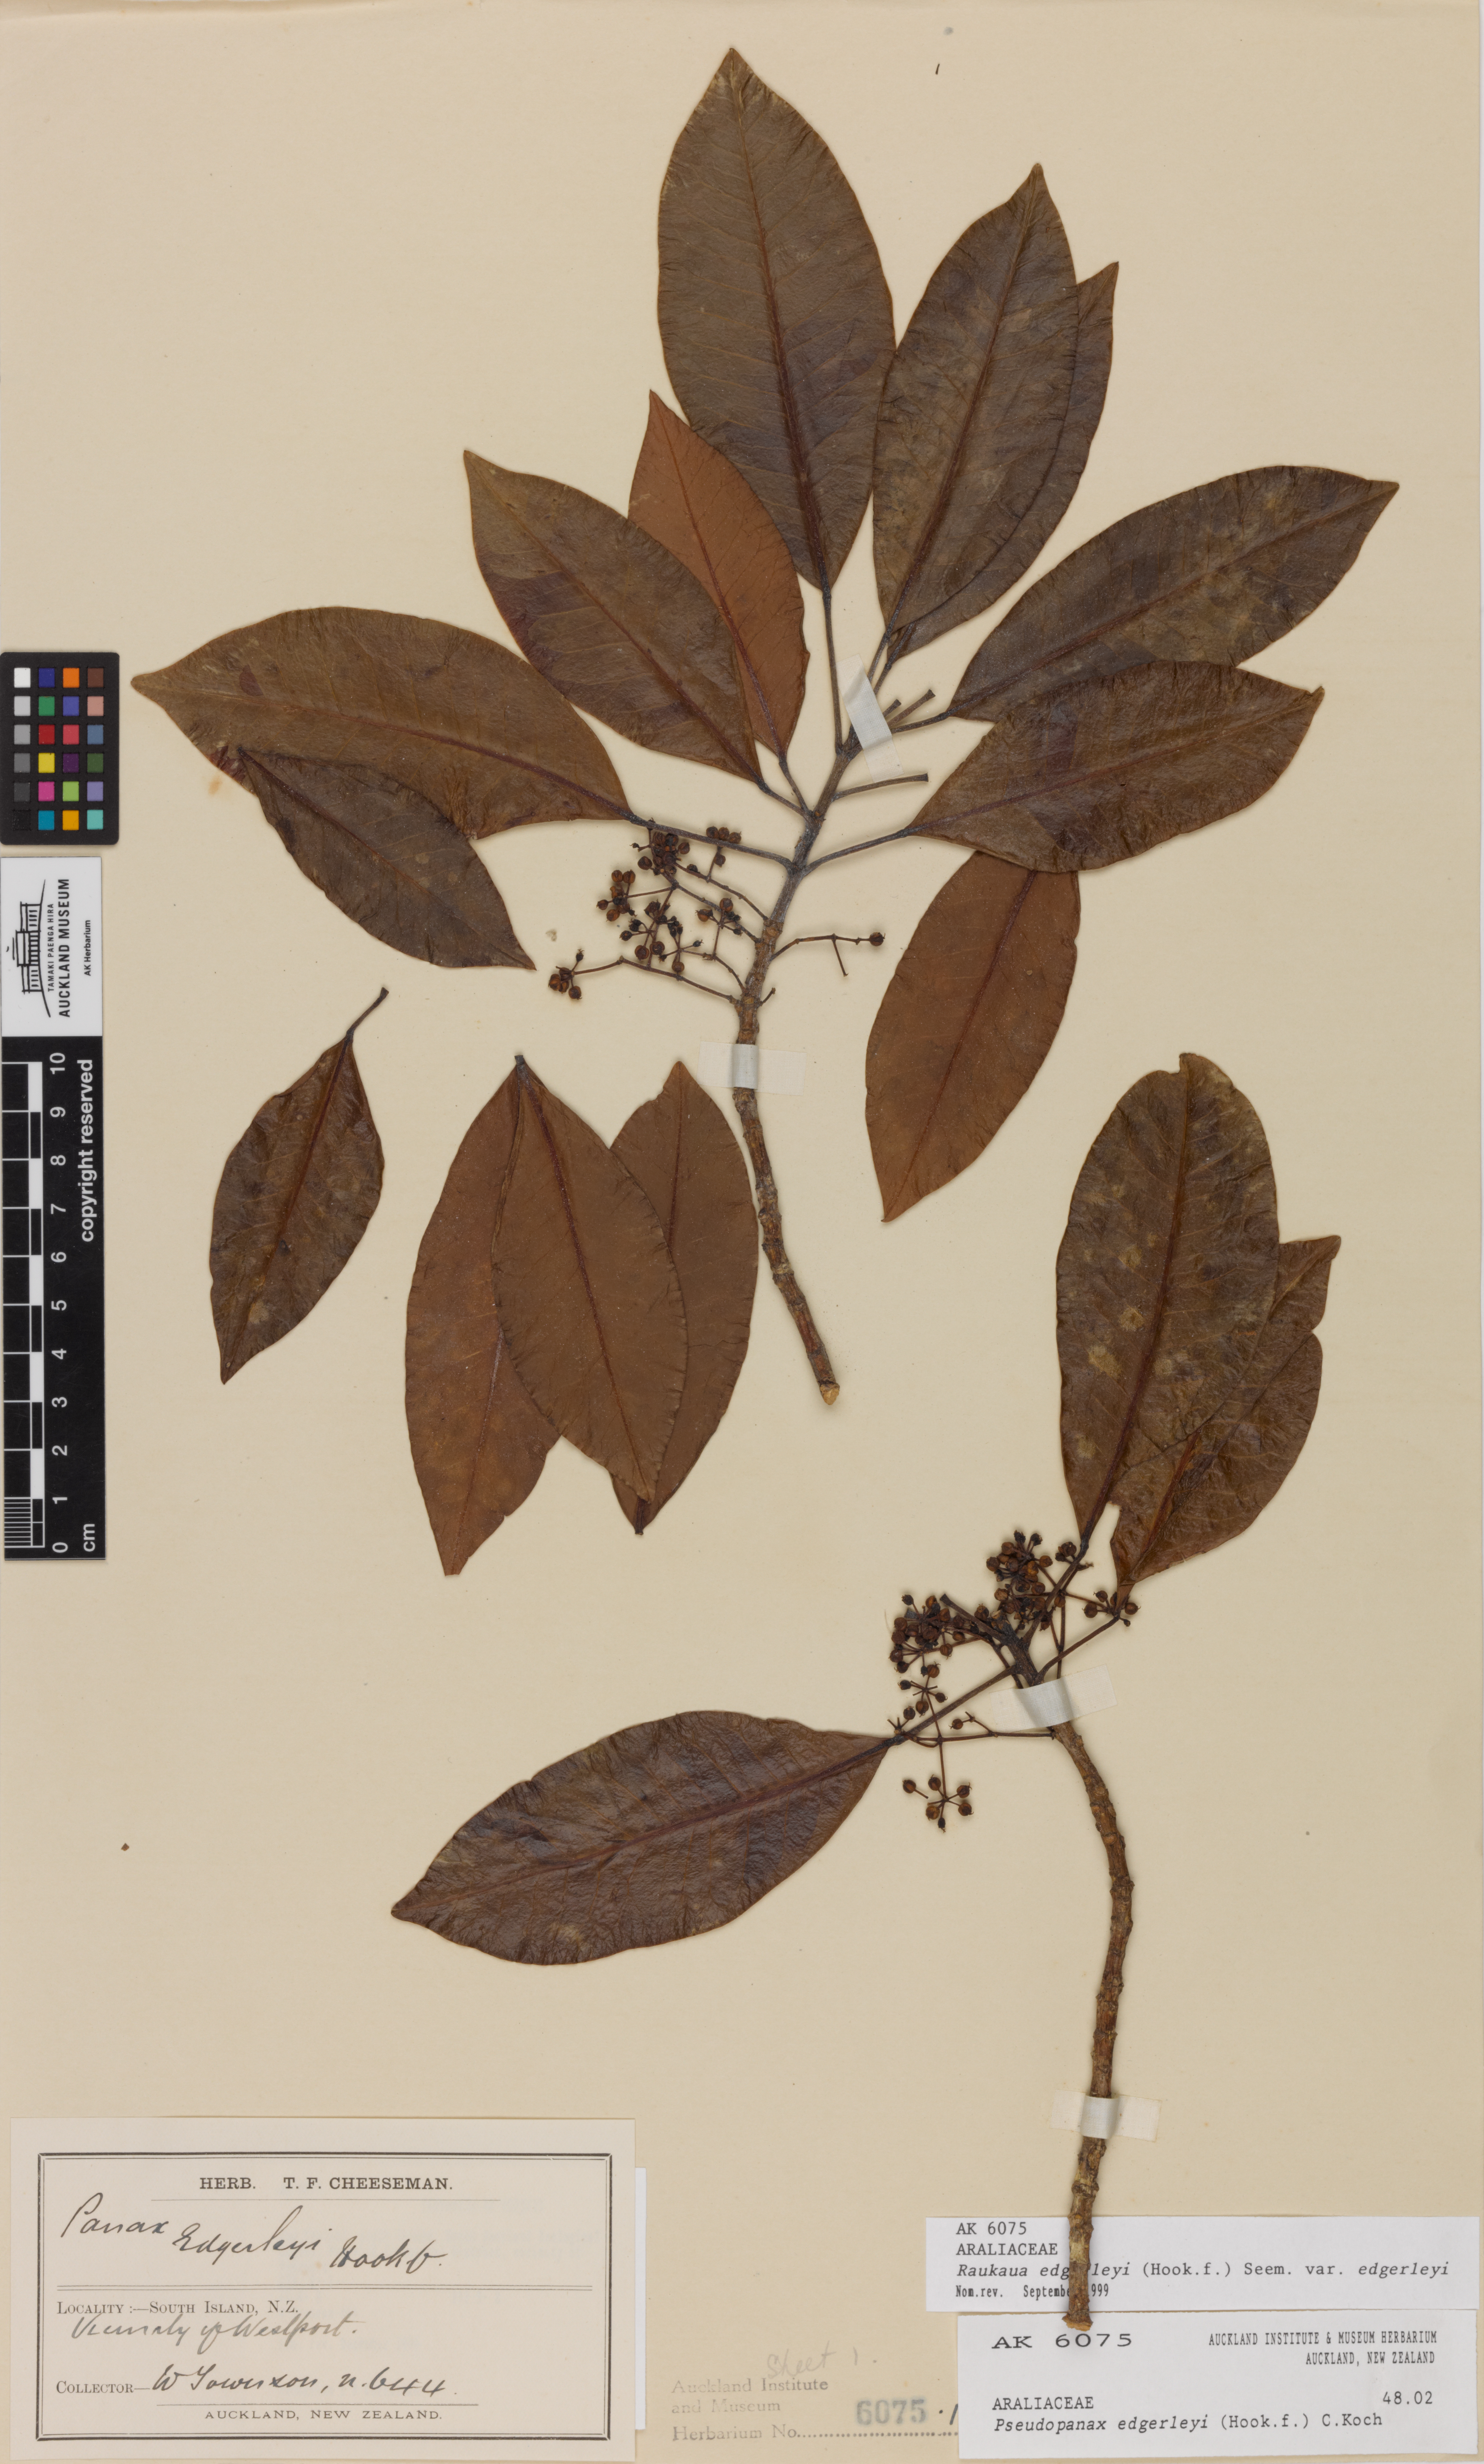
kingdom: Plantae
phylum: Tracheophyta
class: Magnoliopsida
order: Apiales
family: Araliaceae
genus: Raukaua
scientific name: Raukaua edgerleyi
